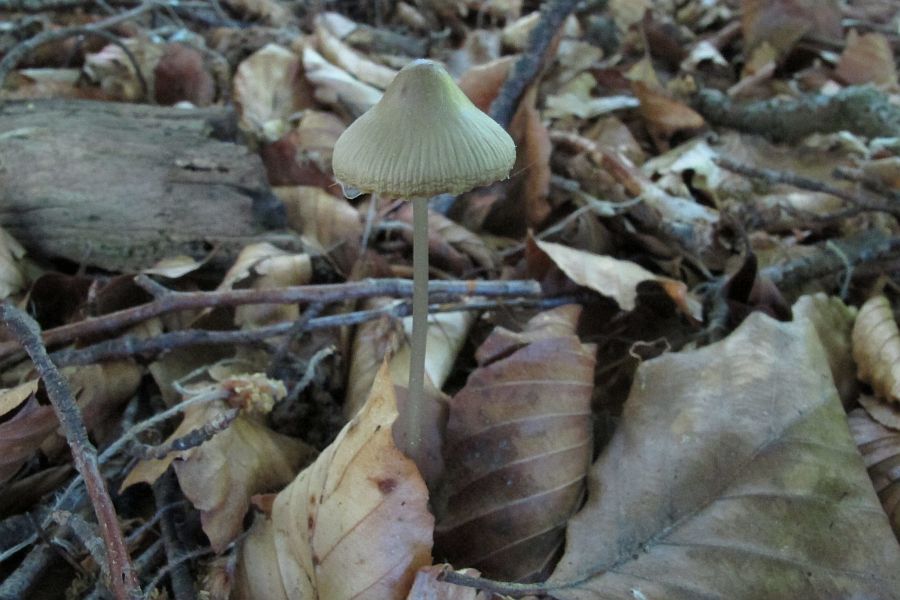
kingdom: Fungi
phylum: Basidiomycota
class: Agaricomycetes
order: Agaricales
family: Mycenaceae
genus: Mycena
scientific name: Mycena vitilis
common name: blankstokket huesvamp
